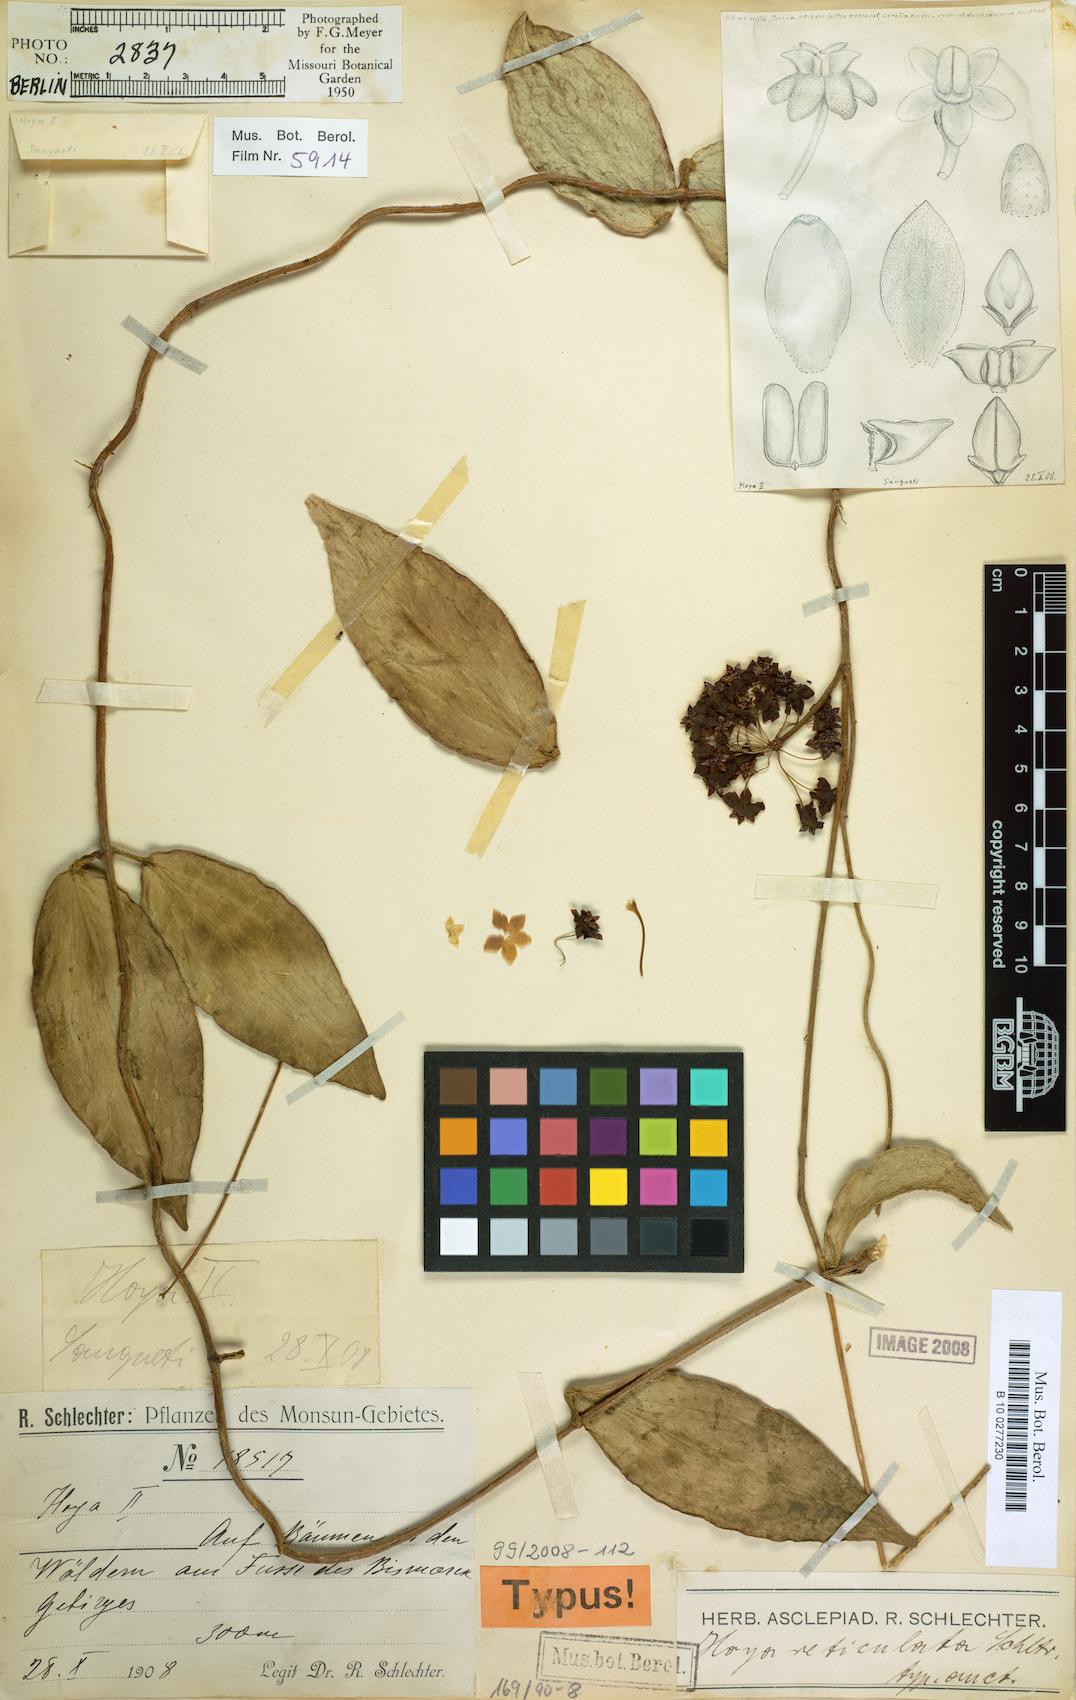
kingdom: Plantae
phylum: Tracheophyta
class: Magnoliopsida
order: Gentianales
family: Apocynaceae
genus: Hoya
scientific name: Hoya chunii
